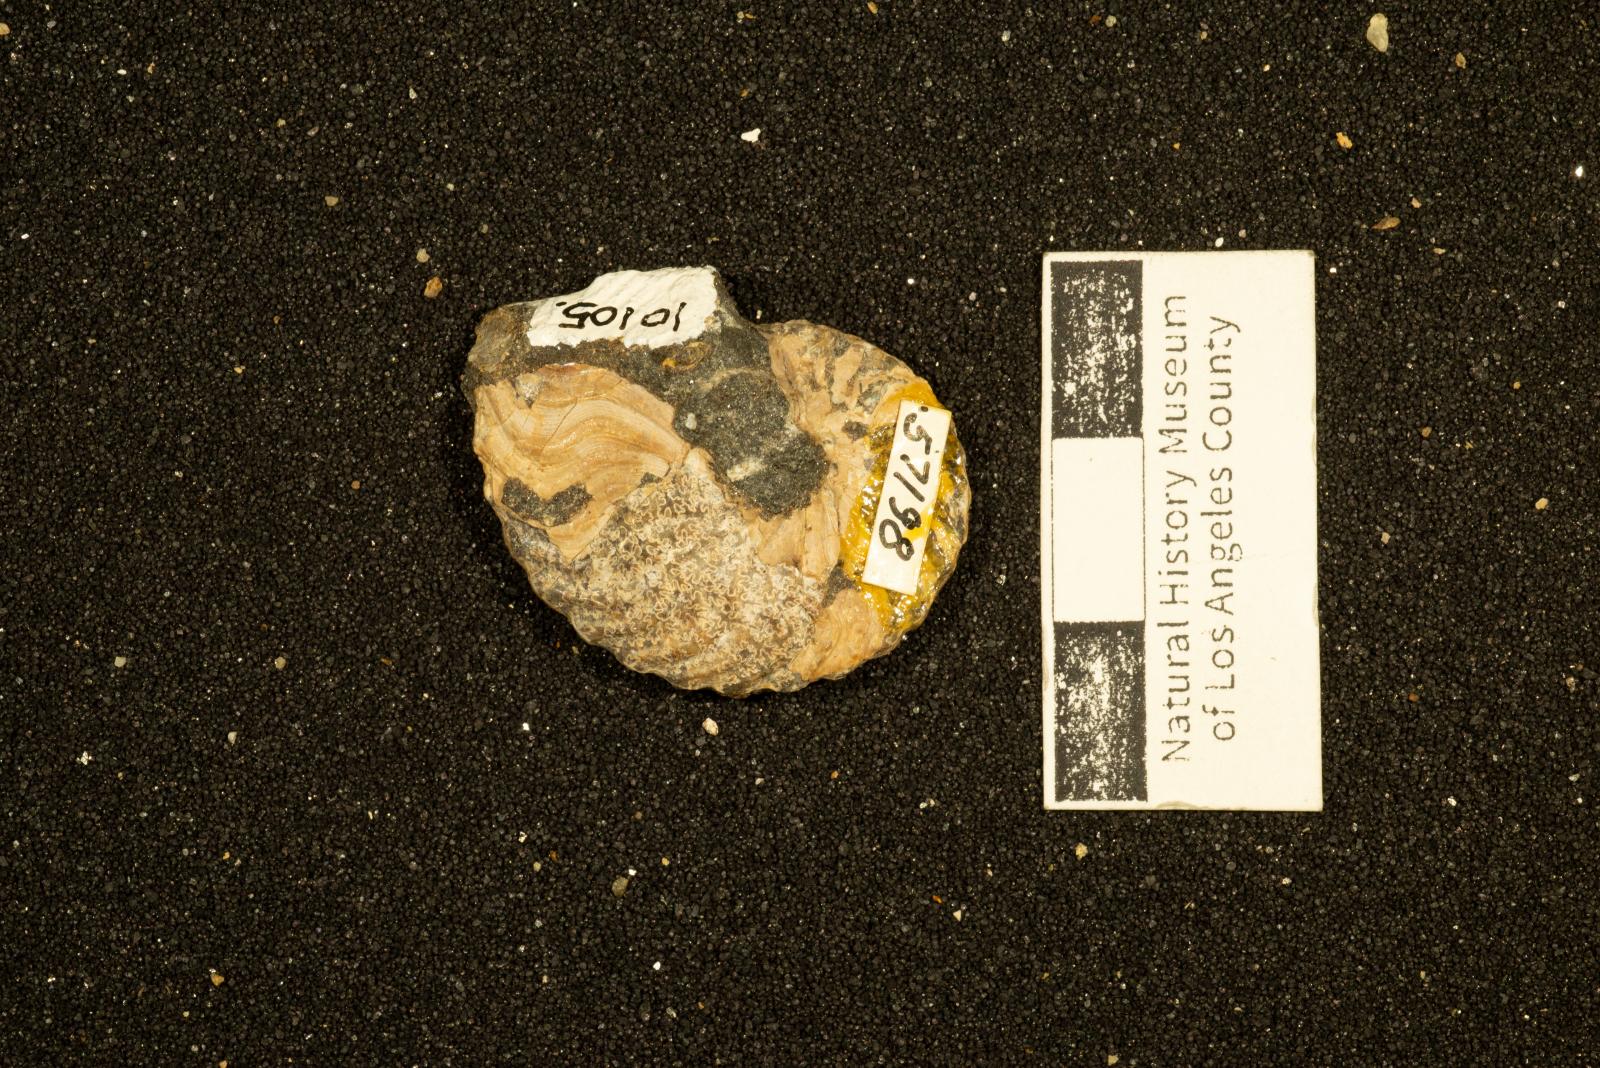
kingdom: Animalia
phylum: Mollusca
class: Cephalopoda
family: Placenticeratidae
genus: Metaplacenticeras
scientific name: Metaplacenticeras Placenticeras pacificum
